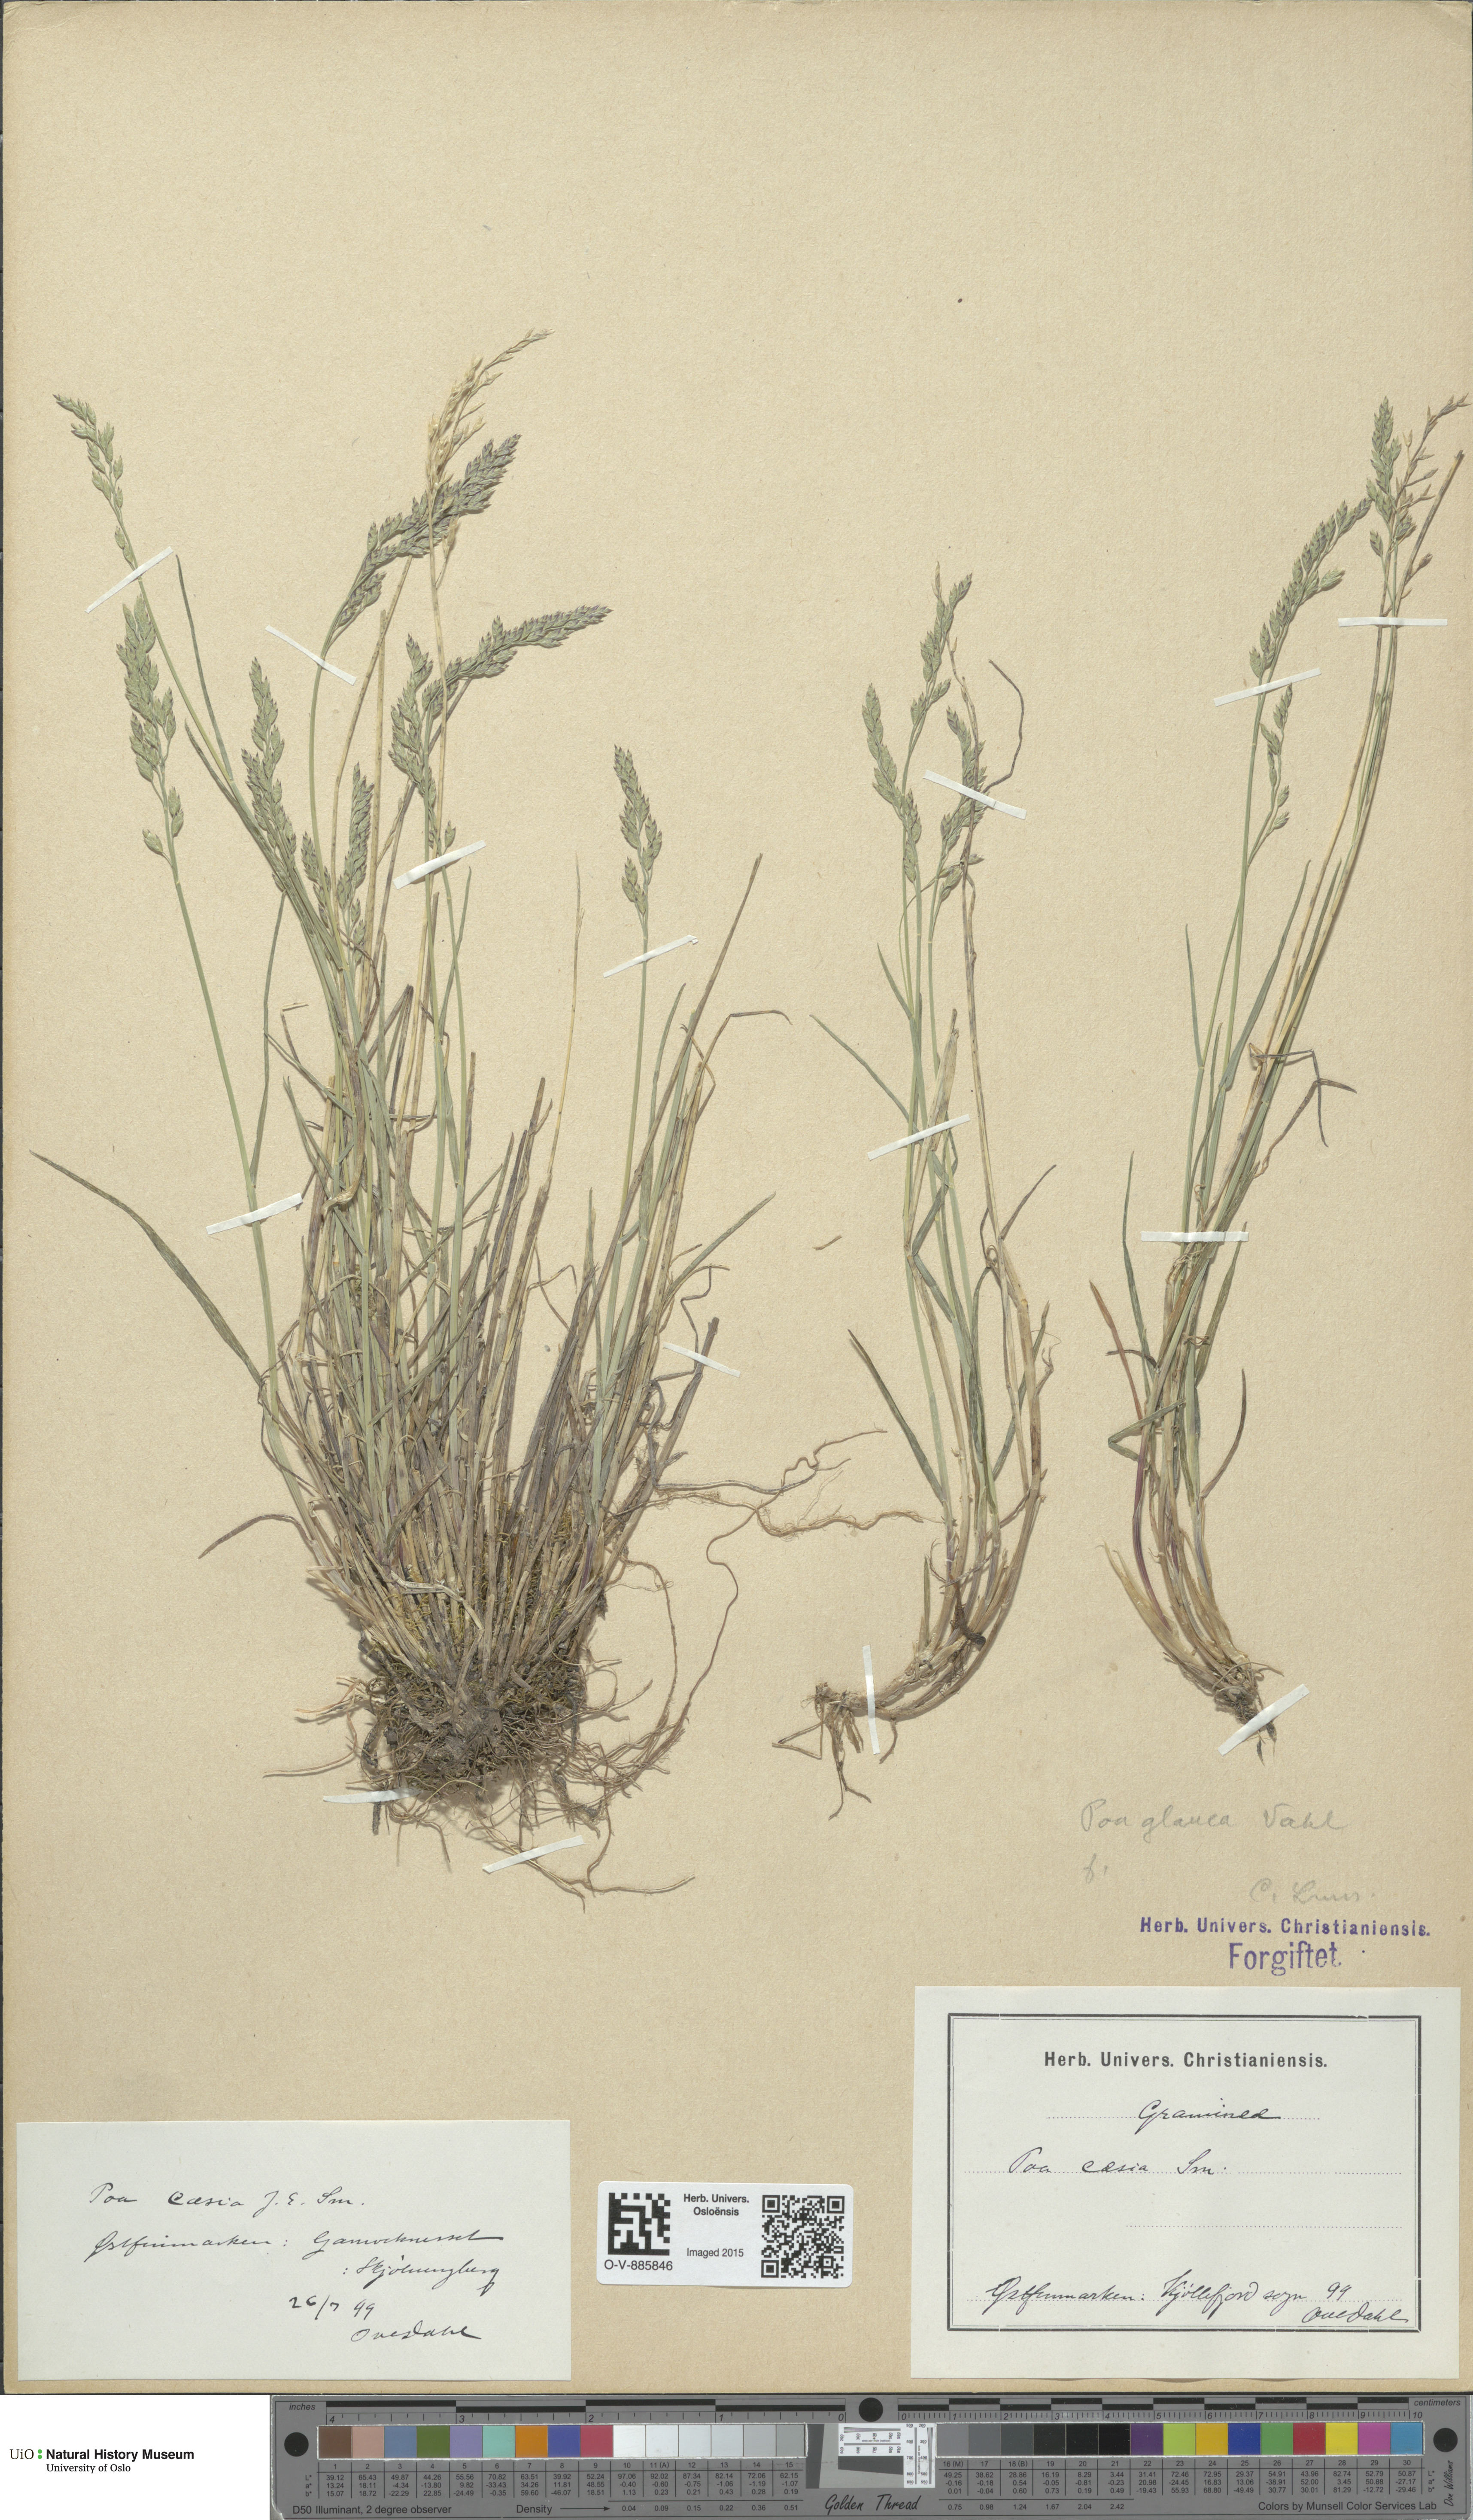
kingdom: Plantae
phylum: Tracheophyta
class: Liliopsida
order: Poales
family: Poaceae
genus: Poa
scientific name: Poa glauca
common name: Glaucous bluegrass
